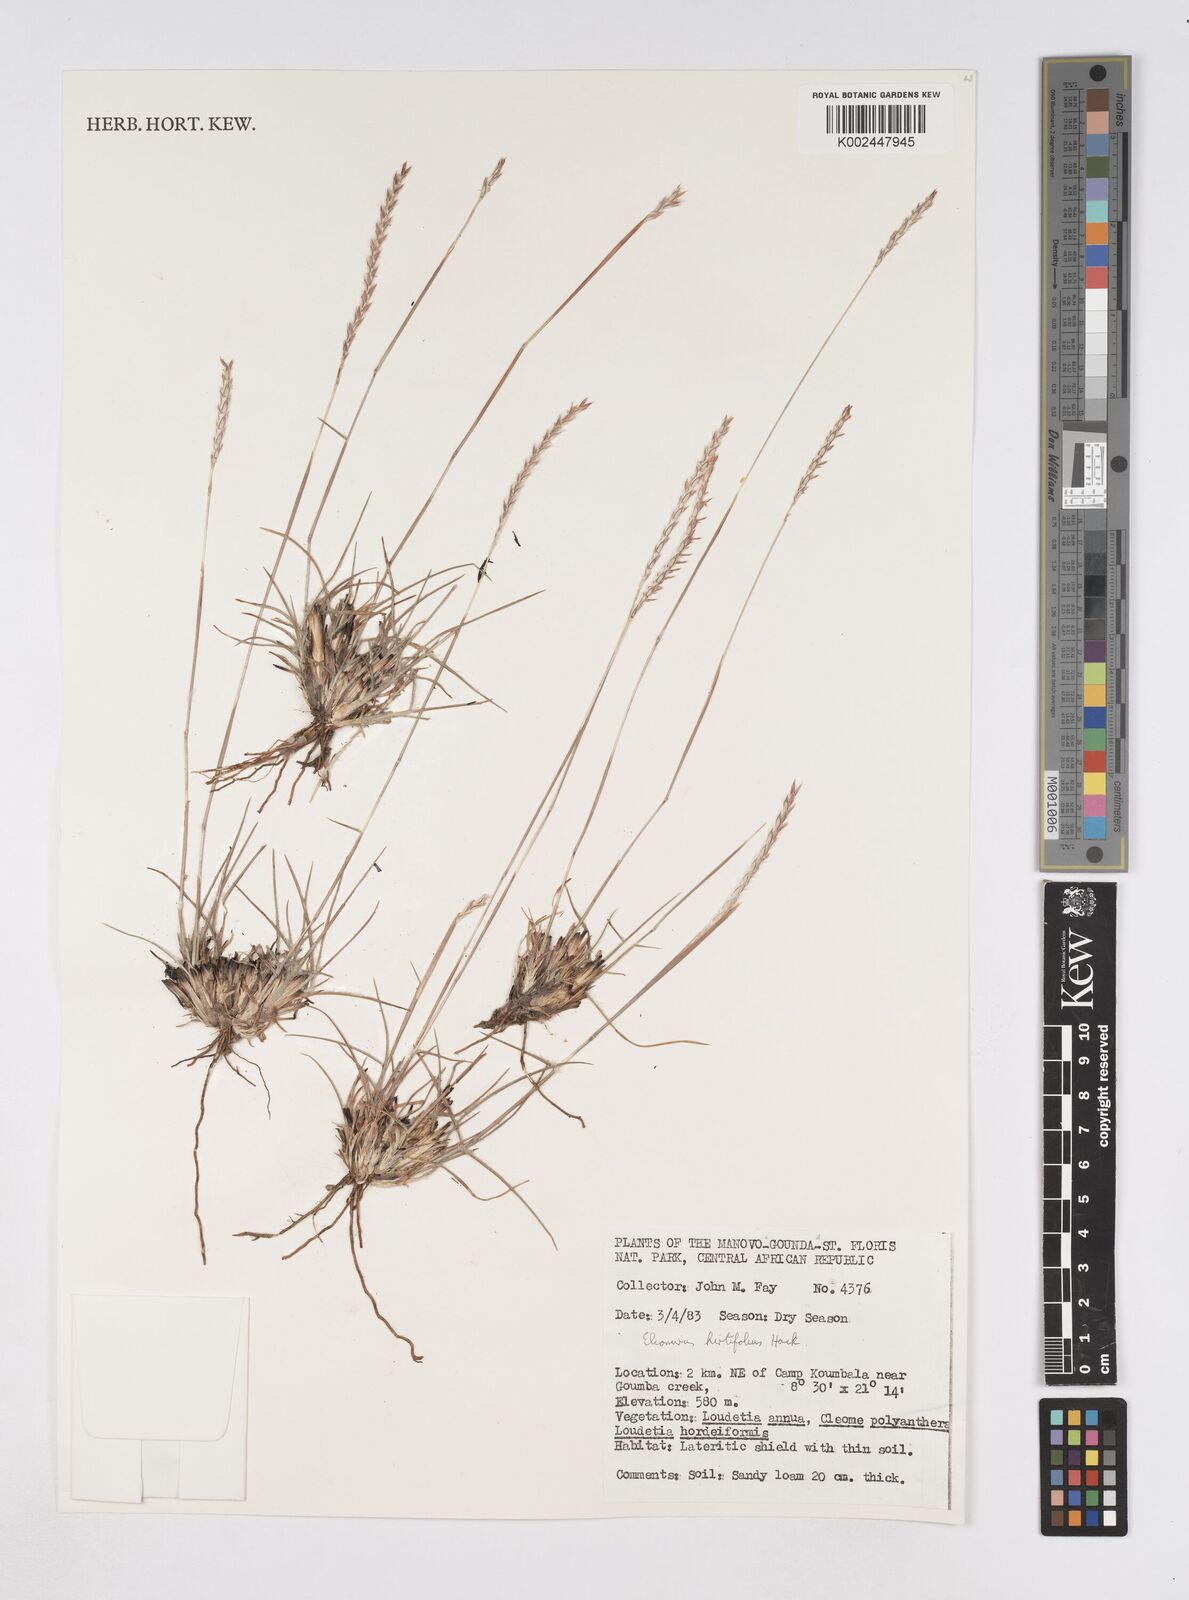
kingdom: Plantae
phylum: Tracheophyta
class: Liliopsida
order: Poales
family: Poaceae
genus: Elionurus
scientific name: Elionurus hirtifolius
